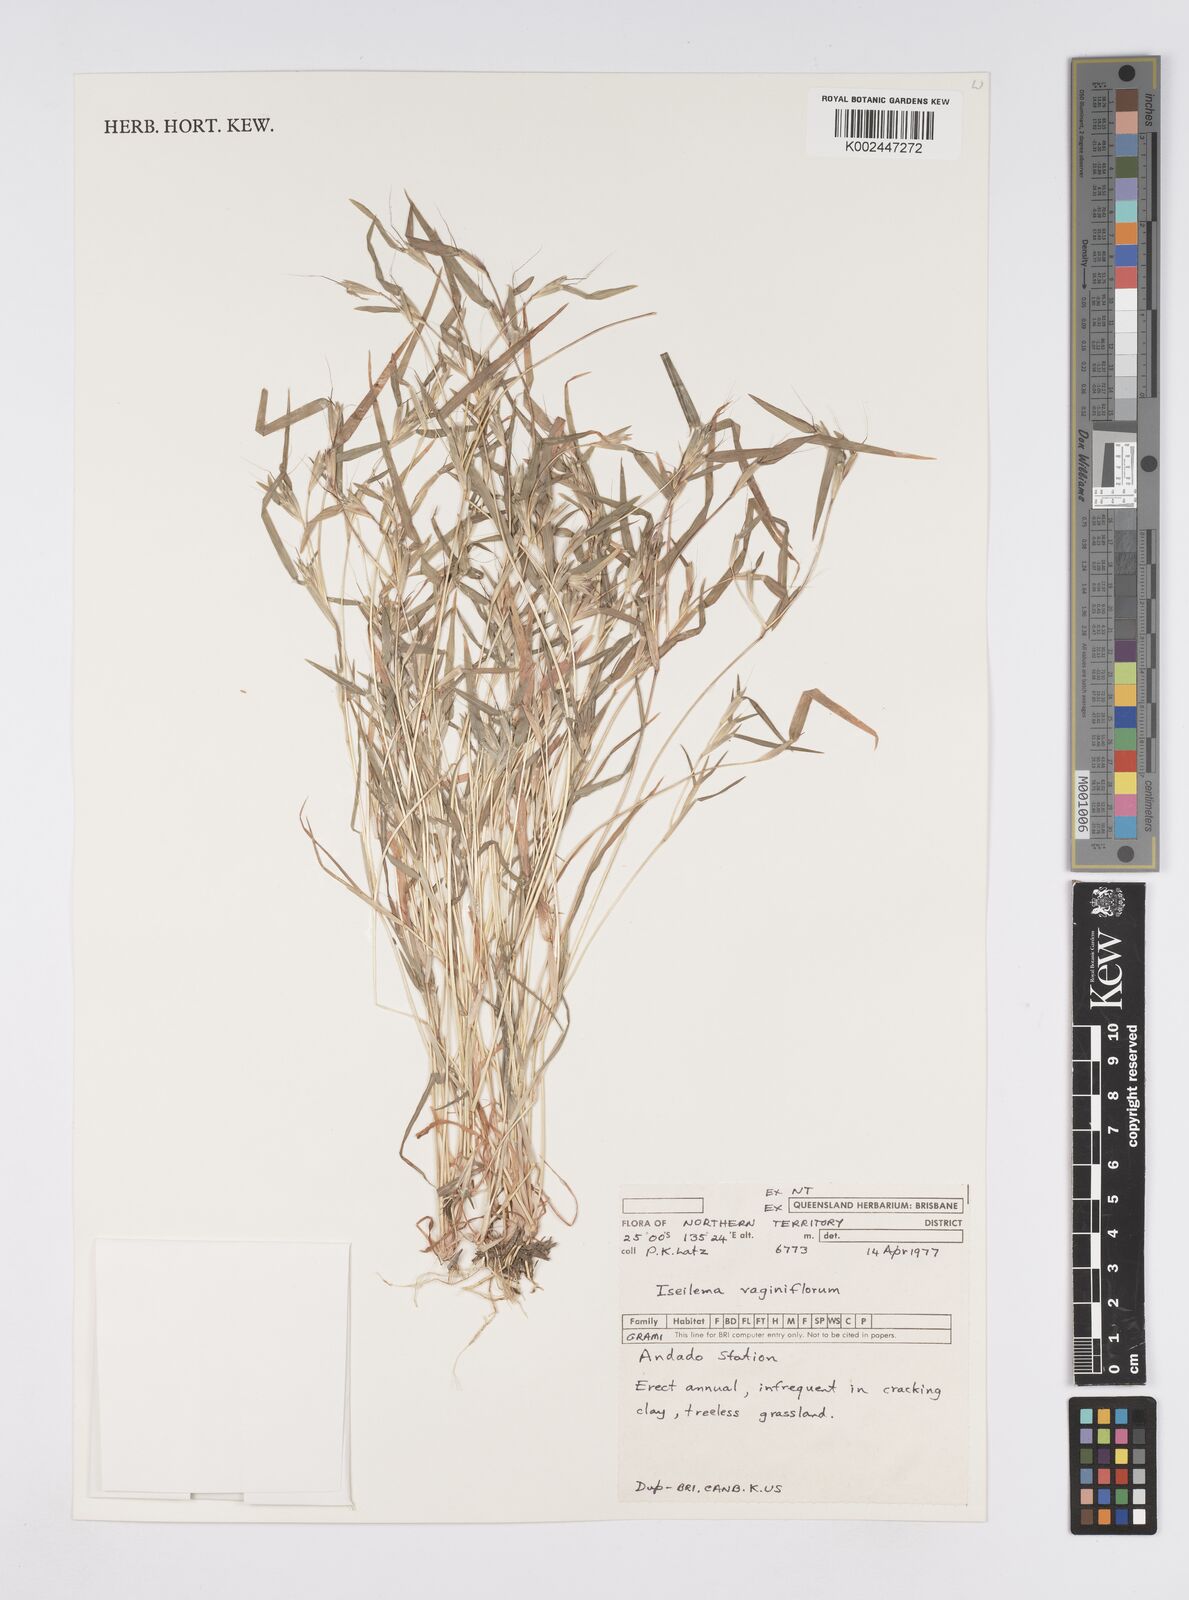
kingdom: Plantae
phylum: Tracheophyta
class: Liliopsida
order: Poales
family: Poaceae
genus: Iseilema
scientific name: Iseilema vaginiflorum
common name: Red flinders grass
